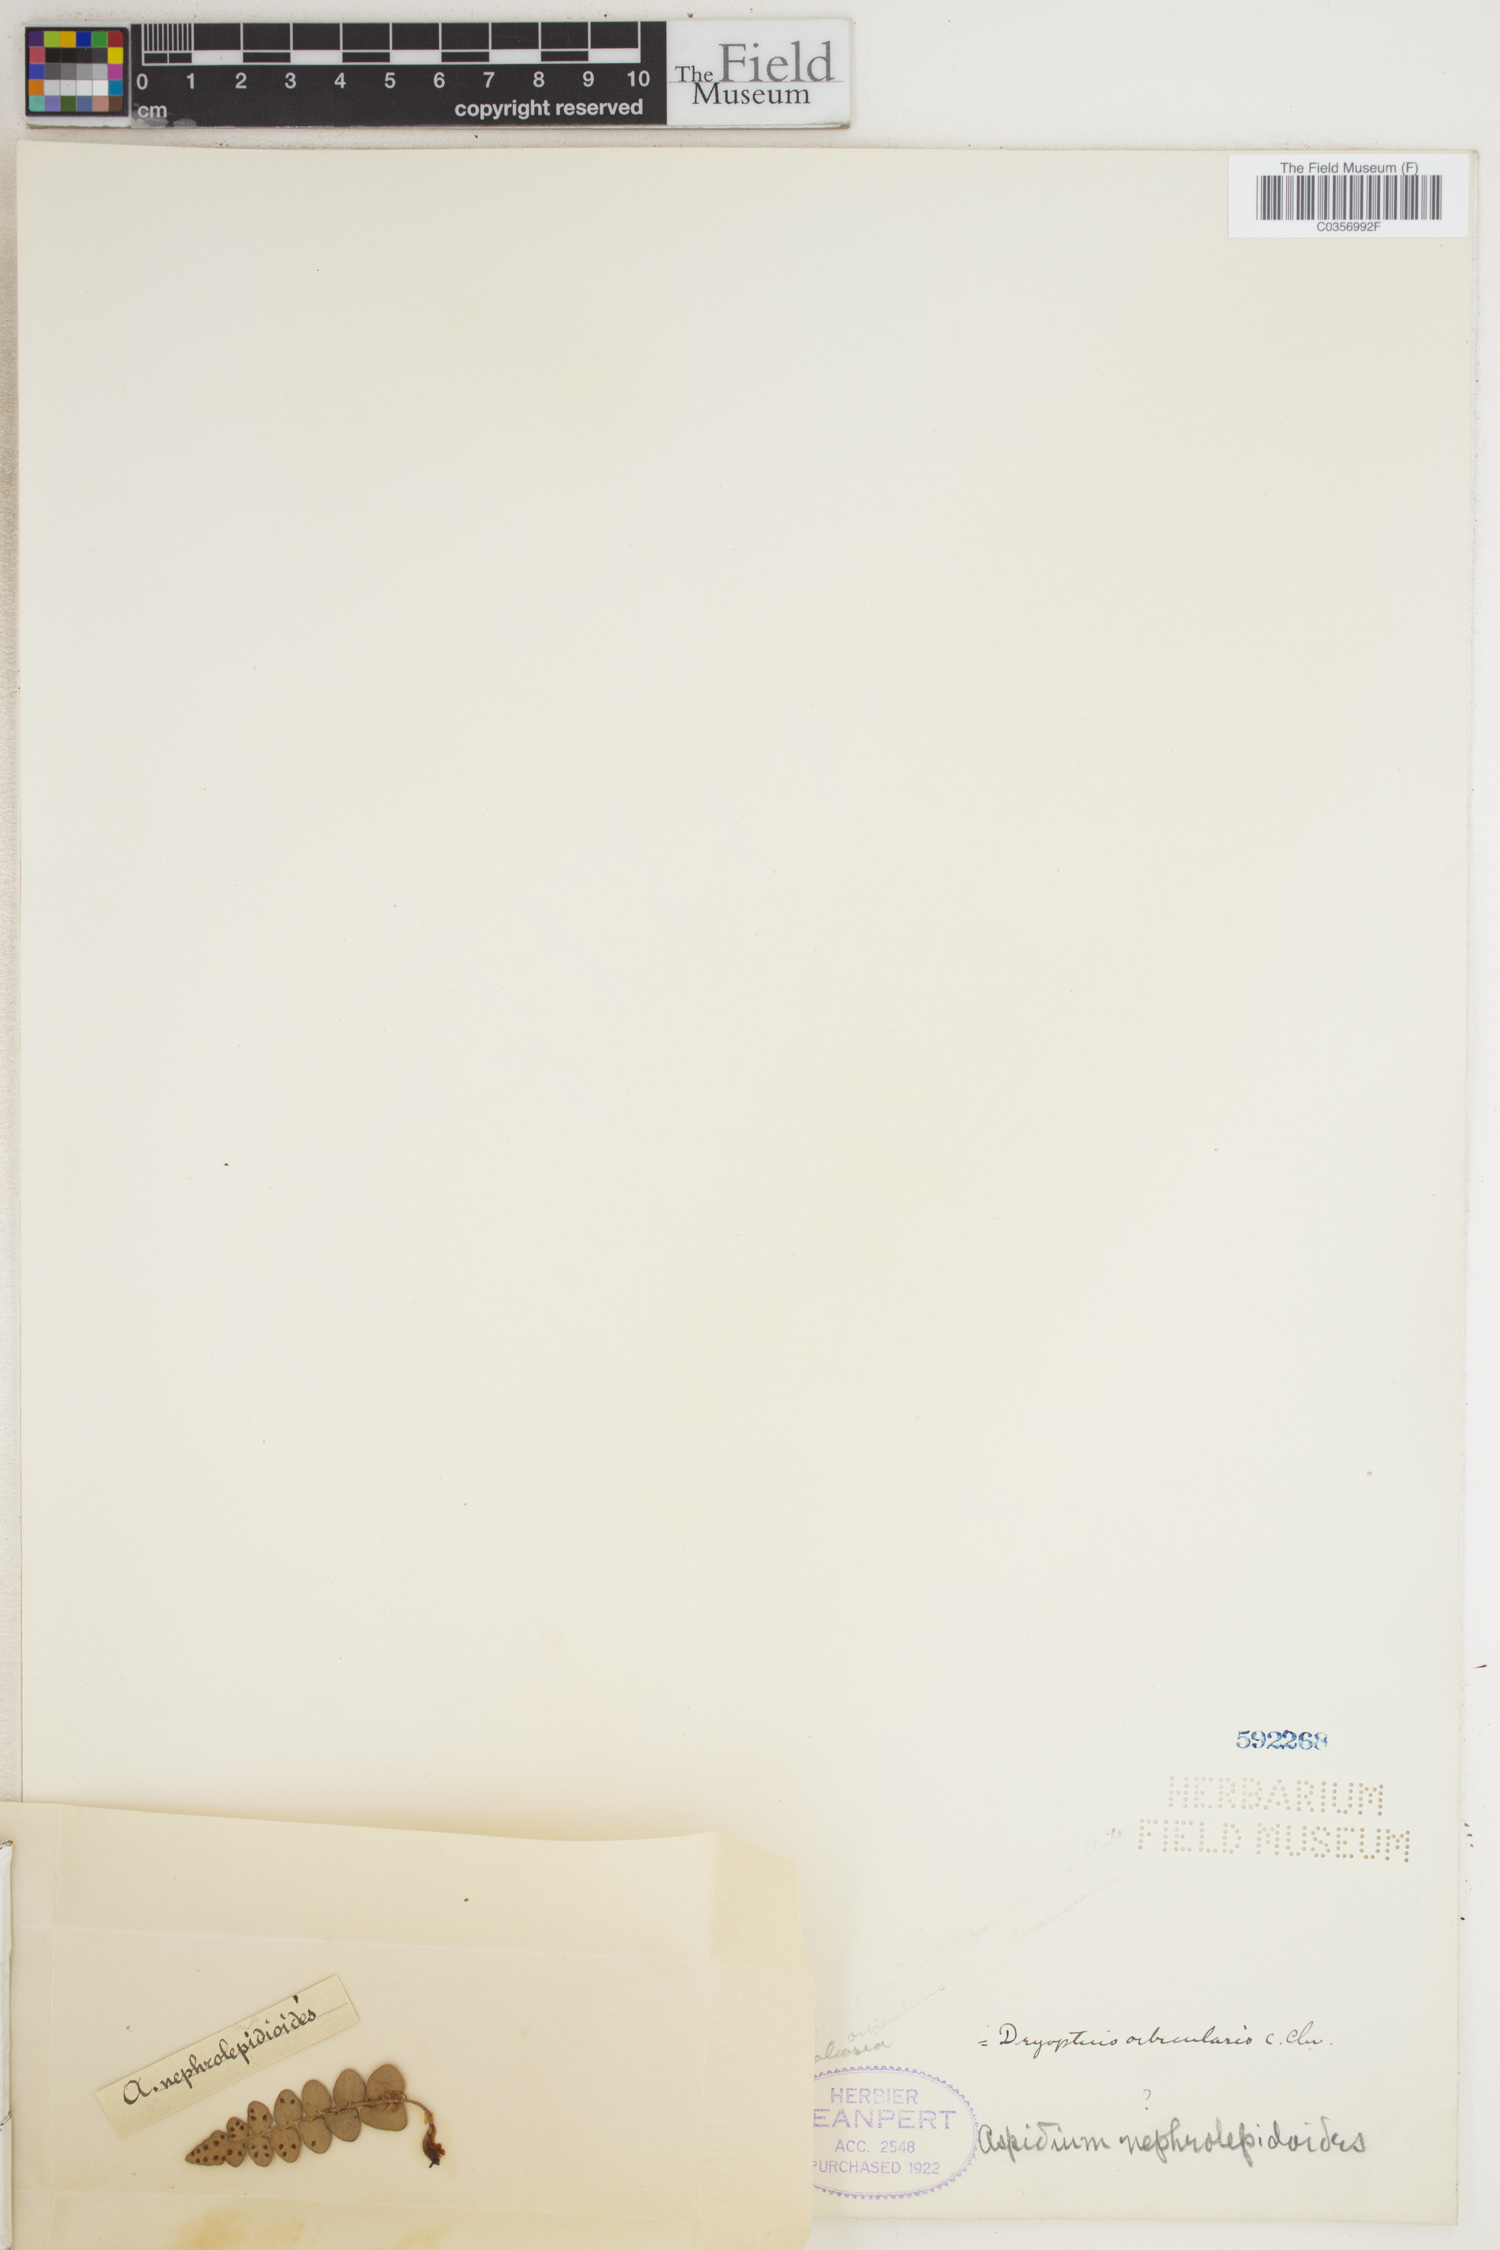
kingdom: Plantae
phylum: Tracheophyta
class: Polypodiopsida
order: Polypodiales
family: Thelypteridaceae
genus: Amblovenatum
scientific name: Amblovenatum opulentum
